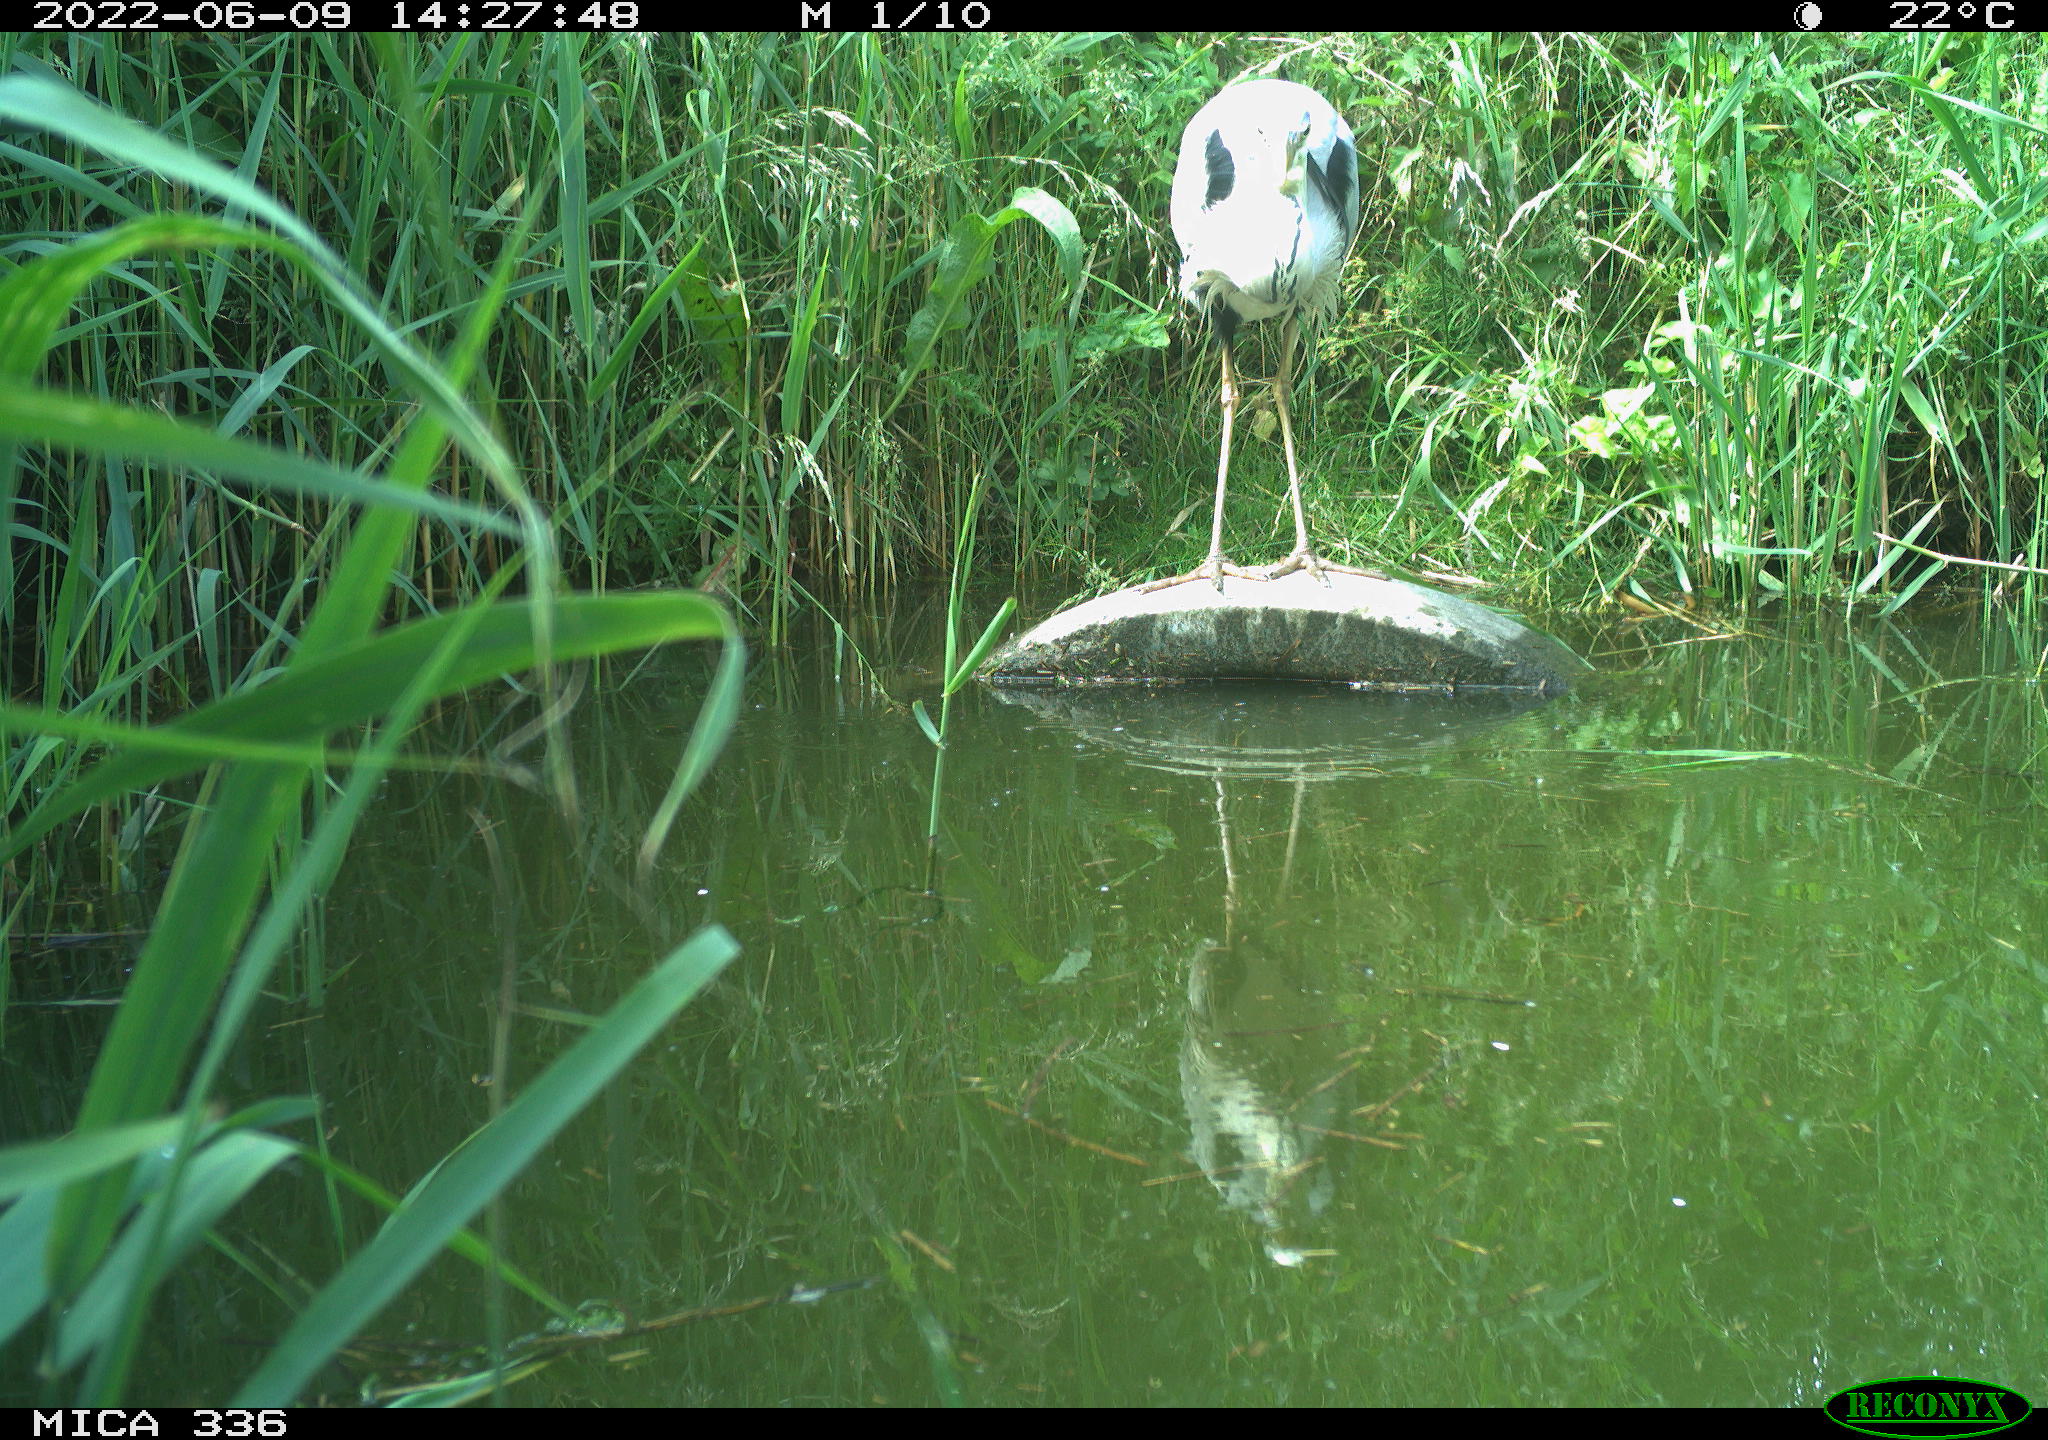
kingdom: Animalia
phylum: Chordata
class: Aves
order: Pelecaniformes
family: Ardeidae
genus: Ardea
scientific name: Ardea cinerea
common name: Grey heron
